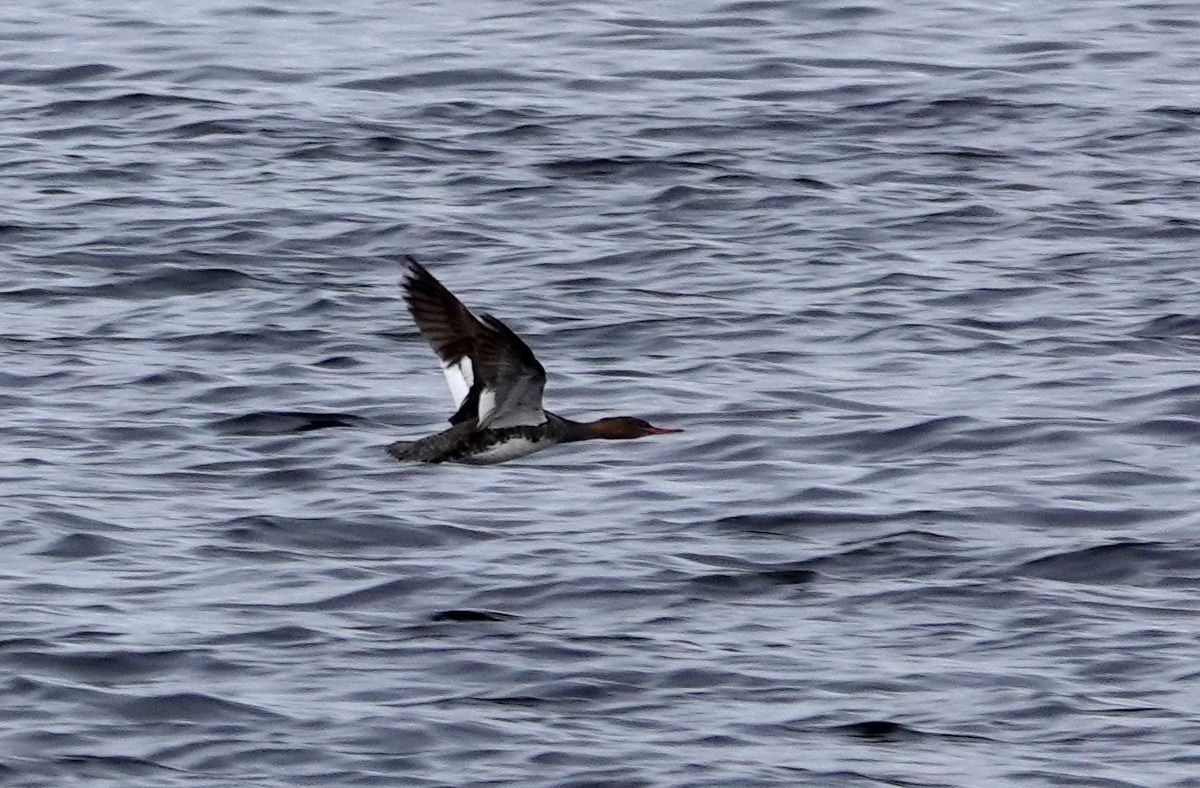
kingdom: Animalia
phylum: Chordata
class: Aves
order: Anseriformes
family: Anatidae
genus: Mergus
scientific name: Mergus serrator
